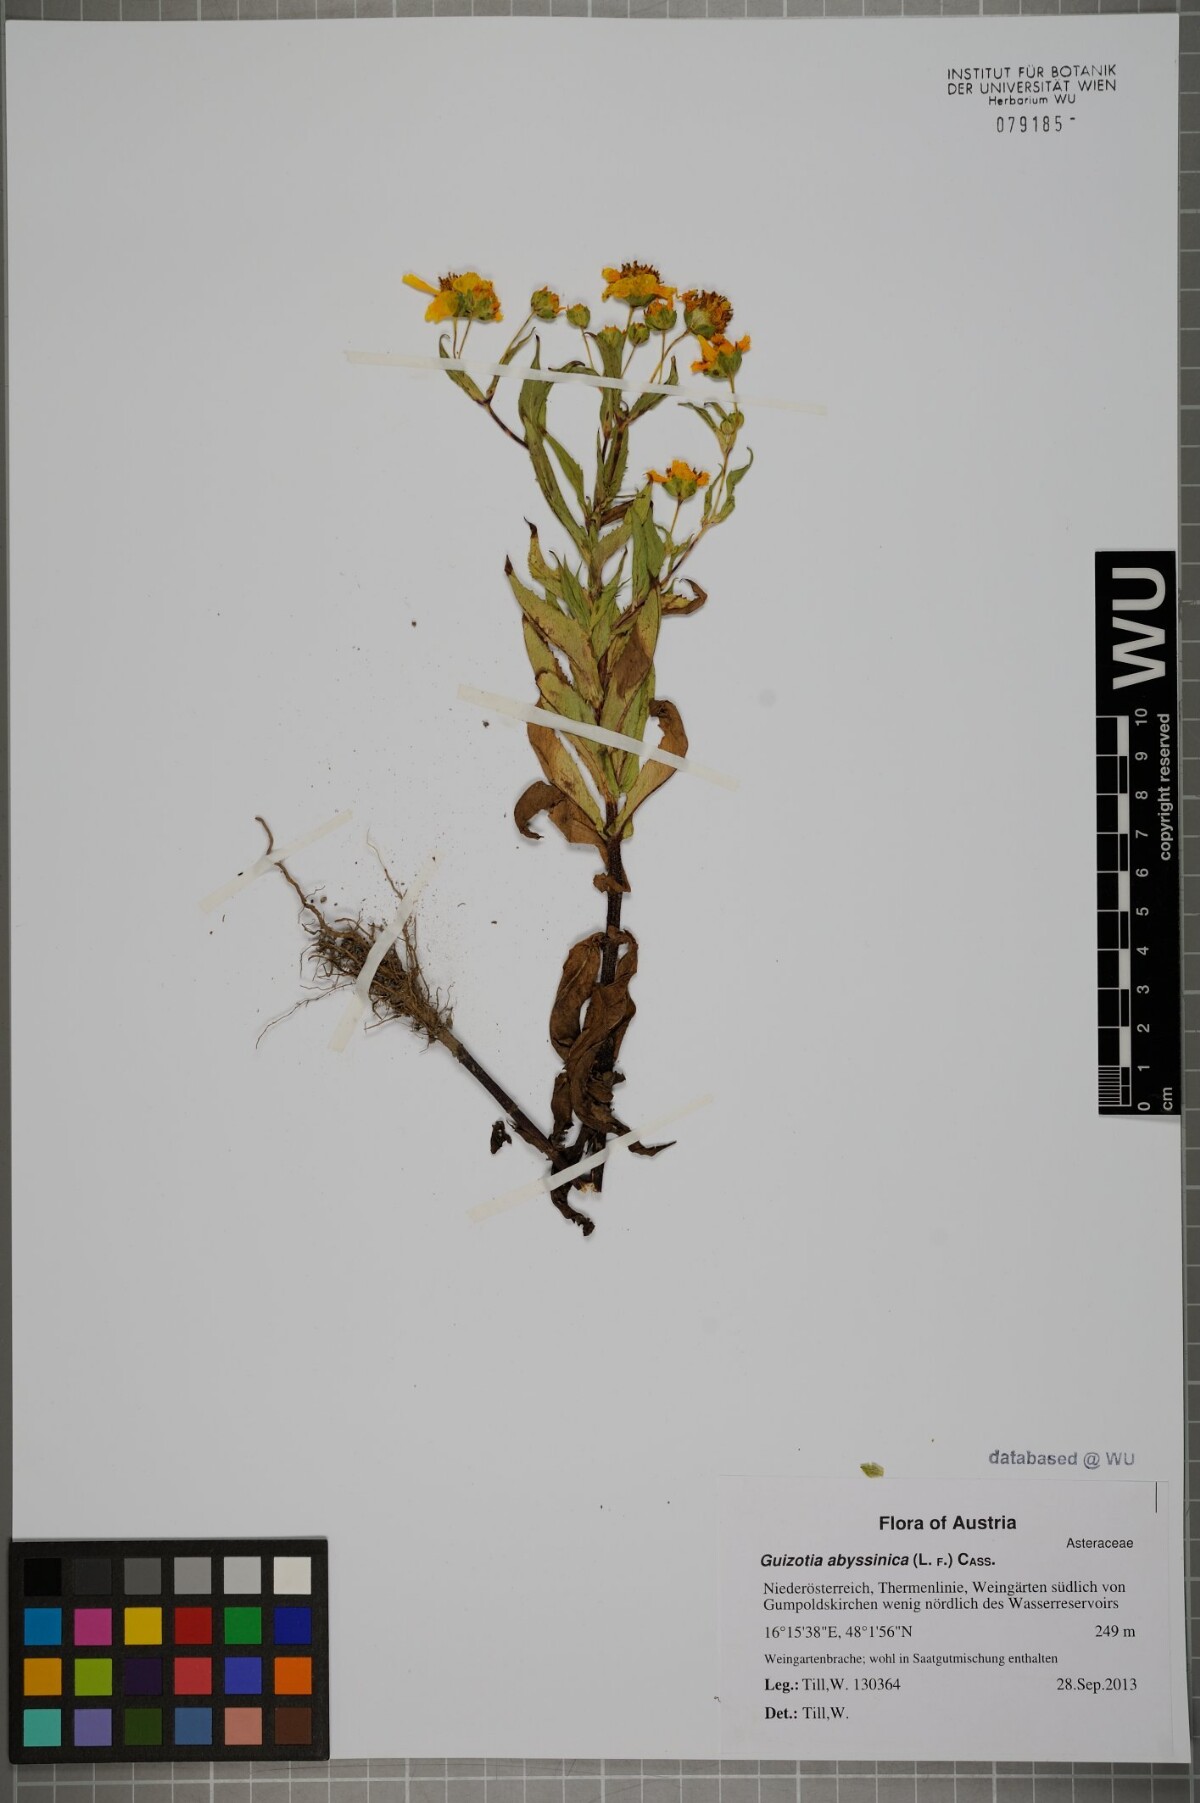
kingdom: Plantae
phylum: Tracheophyta
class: Magnoliopsida
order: Asterales
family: Asteraceae
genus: Guizotia
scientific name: Guizotia abyssinica
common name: Niger
